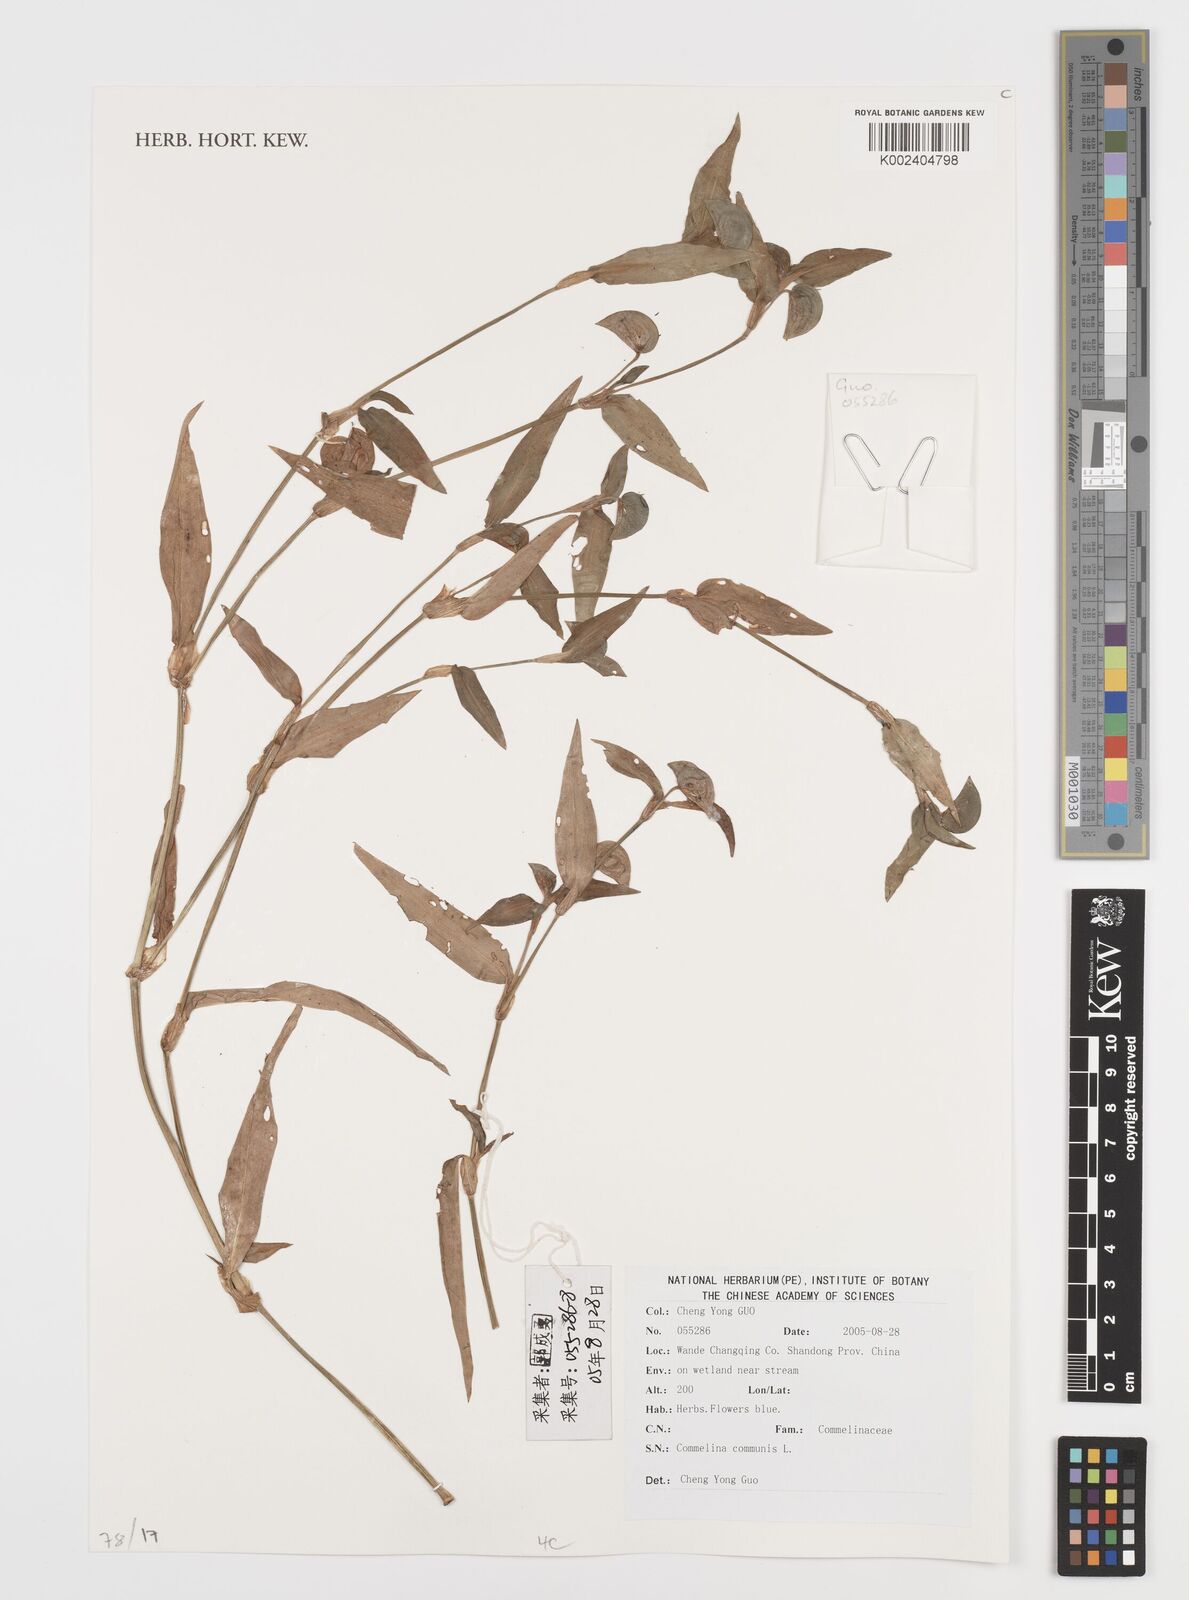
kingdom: Plantae
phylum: Tracheophyta
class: Liliopsida
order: Commelinales
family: Commelinaceae
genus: Commelina
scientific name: Commelina communis
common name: Asiatic dayflower
